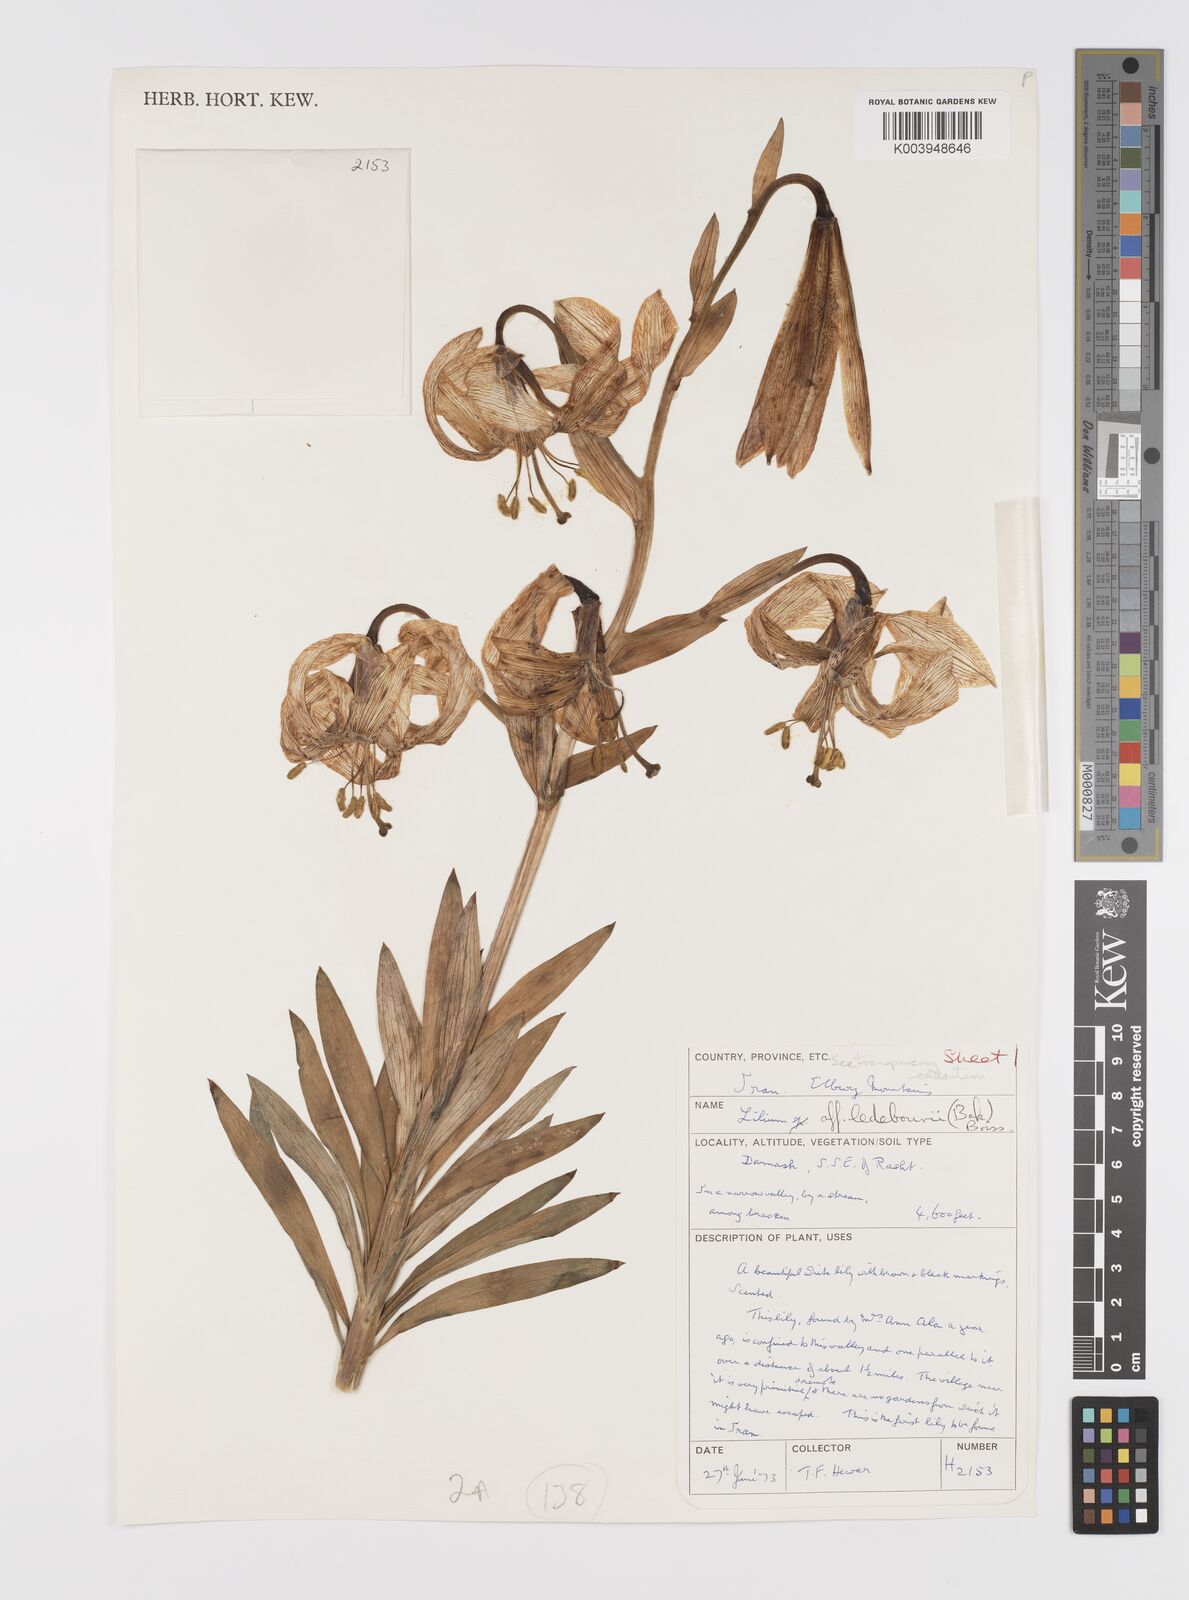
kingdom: Plantae
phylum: Tracheophyta
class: Liliopsida
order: Liliales
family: Liliaceae
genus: Lilium
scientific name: Lilium ledebourii
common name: Ledebour's lily
